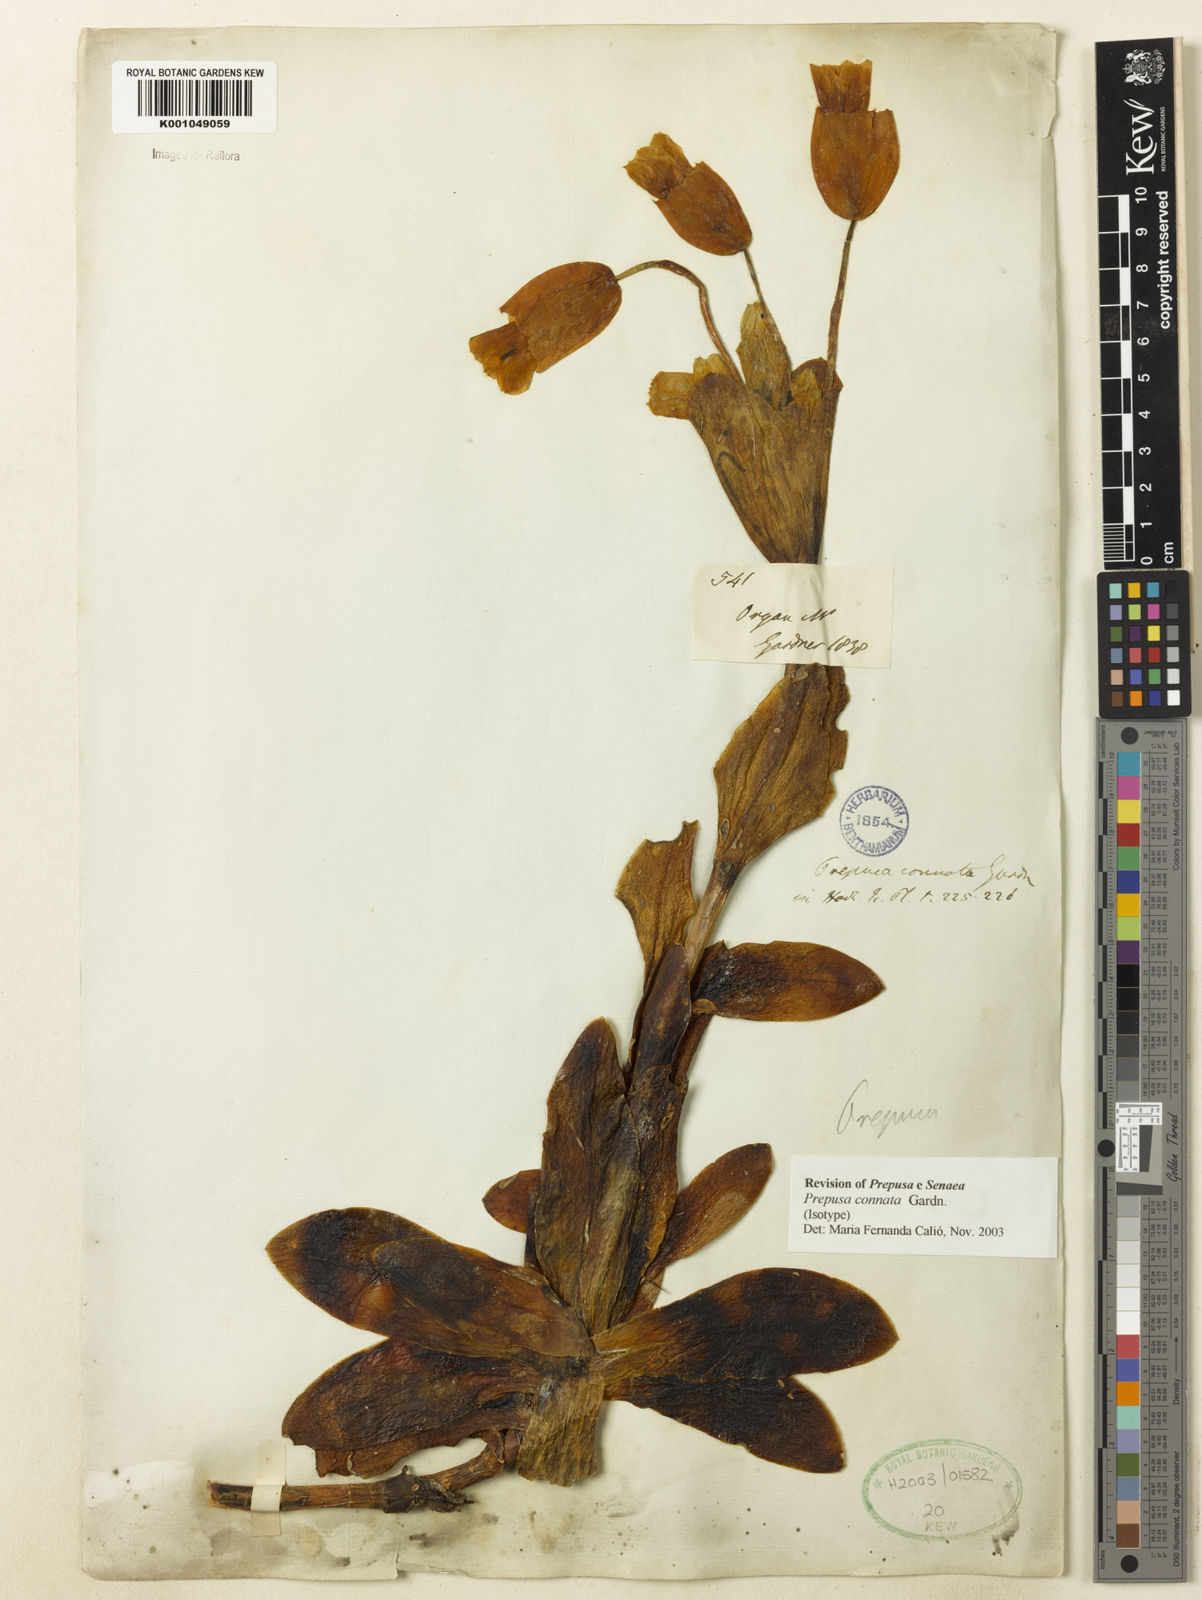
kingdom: Plantae
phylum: Tracheophyta
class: Magnoliopsida
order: Gentianales
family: Gentianaceae
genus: Prepusa
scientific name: Prepusa connata
